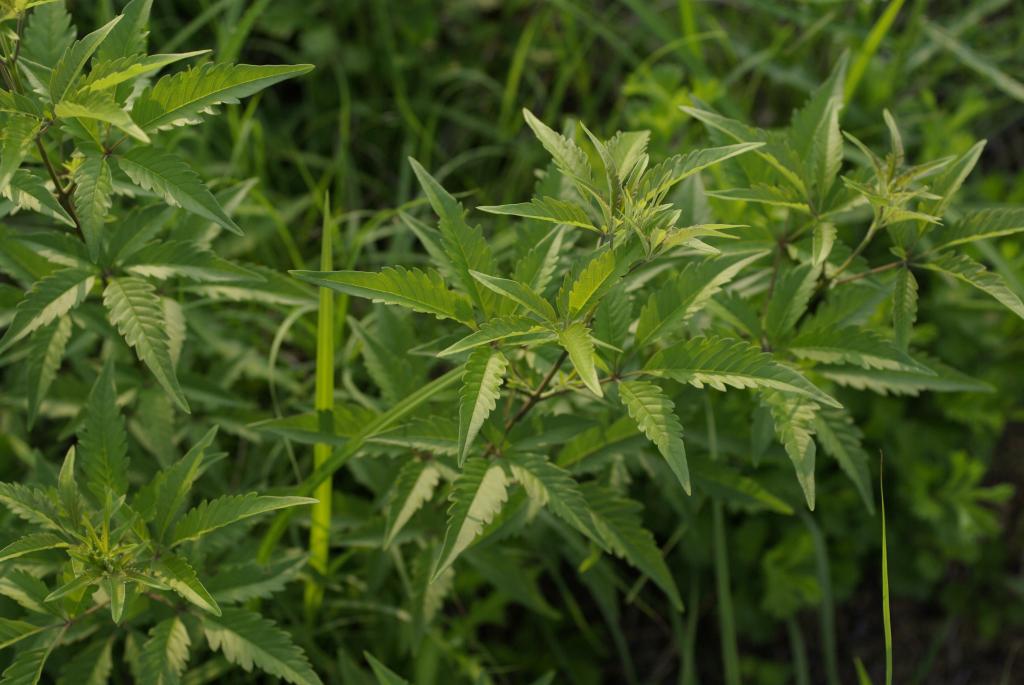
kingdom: Plantae
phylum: Tracheophyta
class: Magnoliopsida
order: Lamiales
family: Lamiaceae
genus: Vitex
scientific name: Vitex negundo
